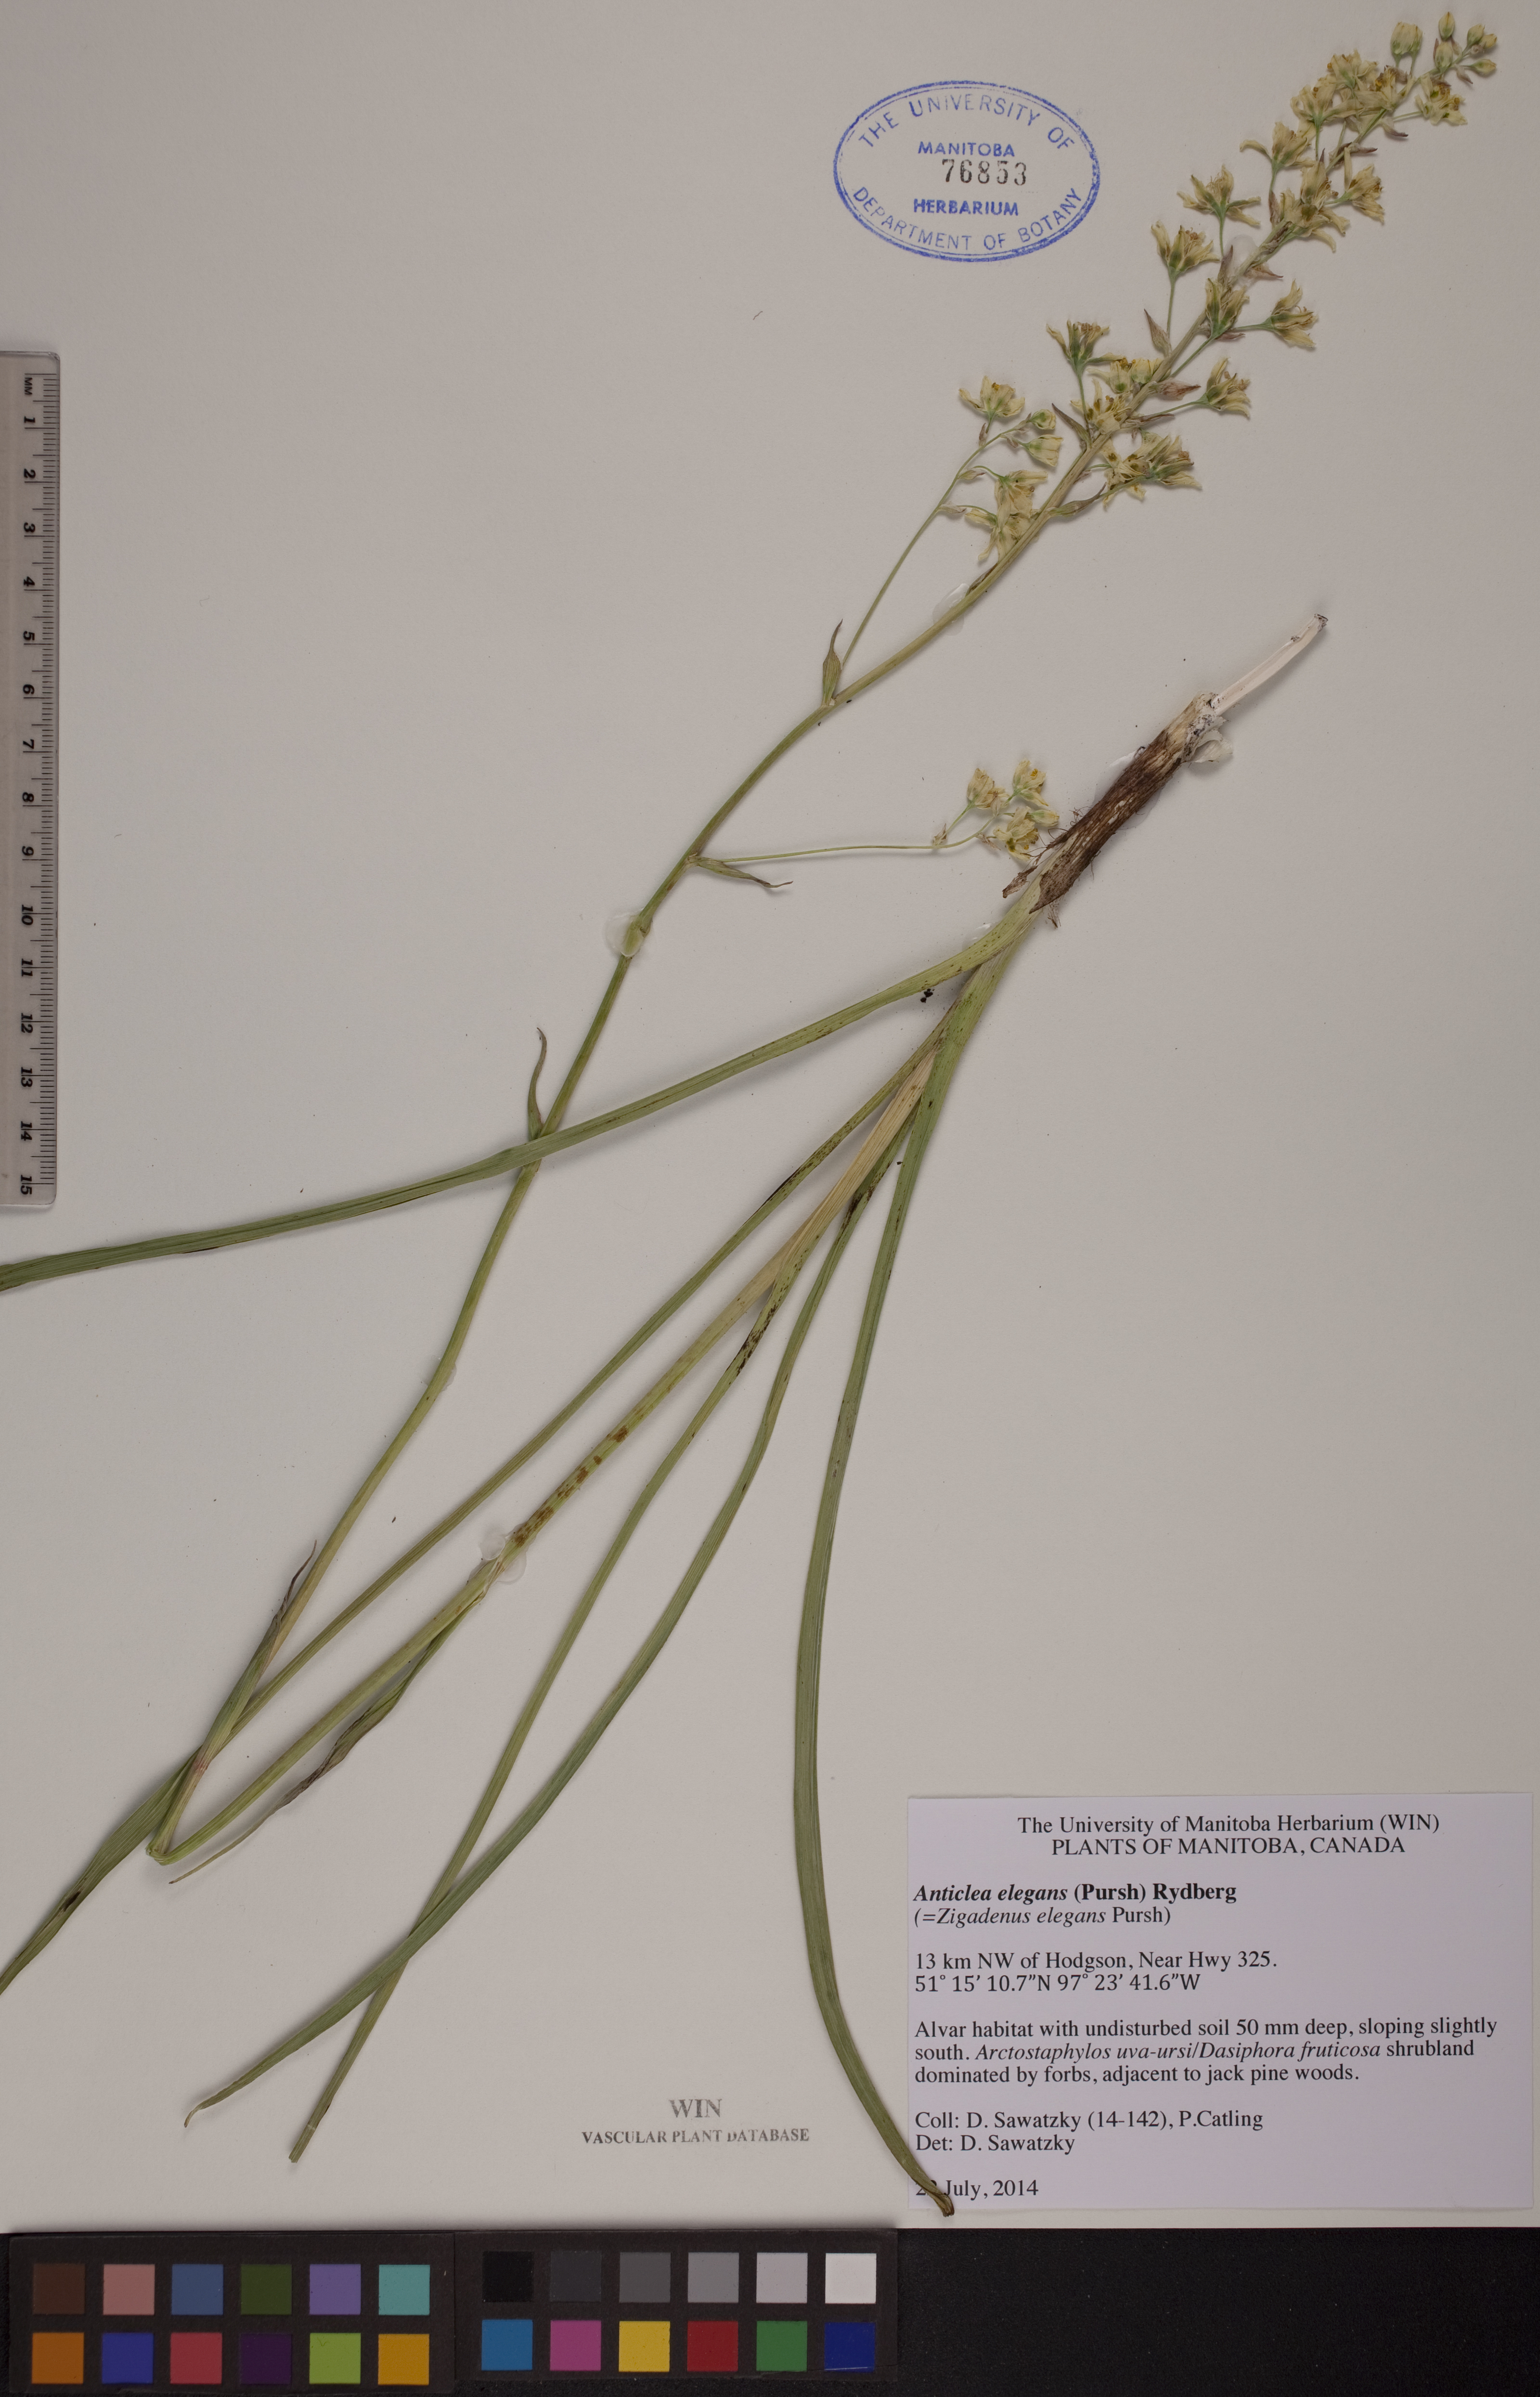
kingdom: Plantae
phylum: Tracheophyta
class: Liliopsida
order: Liliales
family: Melanthiaceae
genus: Anticlea
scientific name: Anticlea elegans
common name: Mountain death camas
